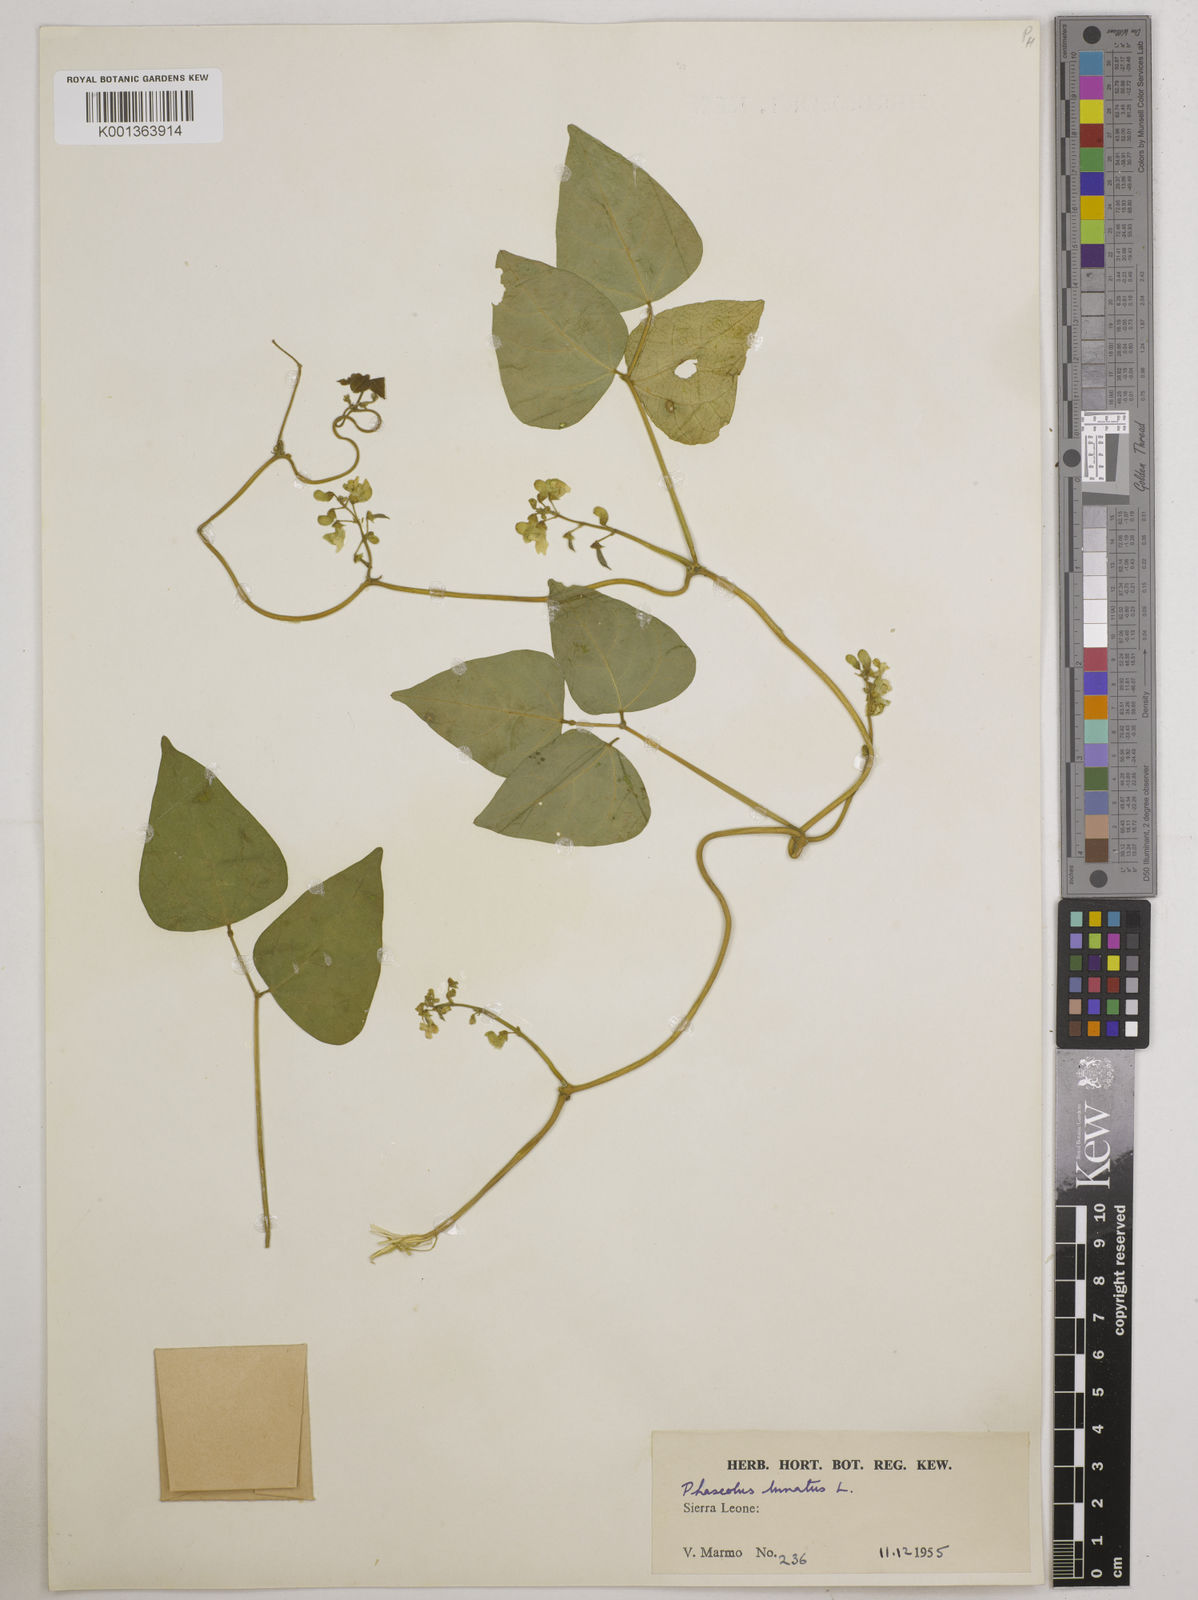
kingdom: Plantae
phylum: Tracheophyta
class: Magnoliopsida
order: Fabales
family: Fabaceae
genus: Phaseolus
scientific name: Phaseolus lunatus
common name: Sieva bean
